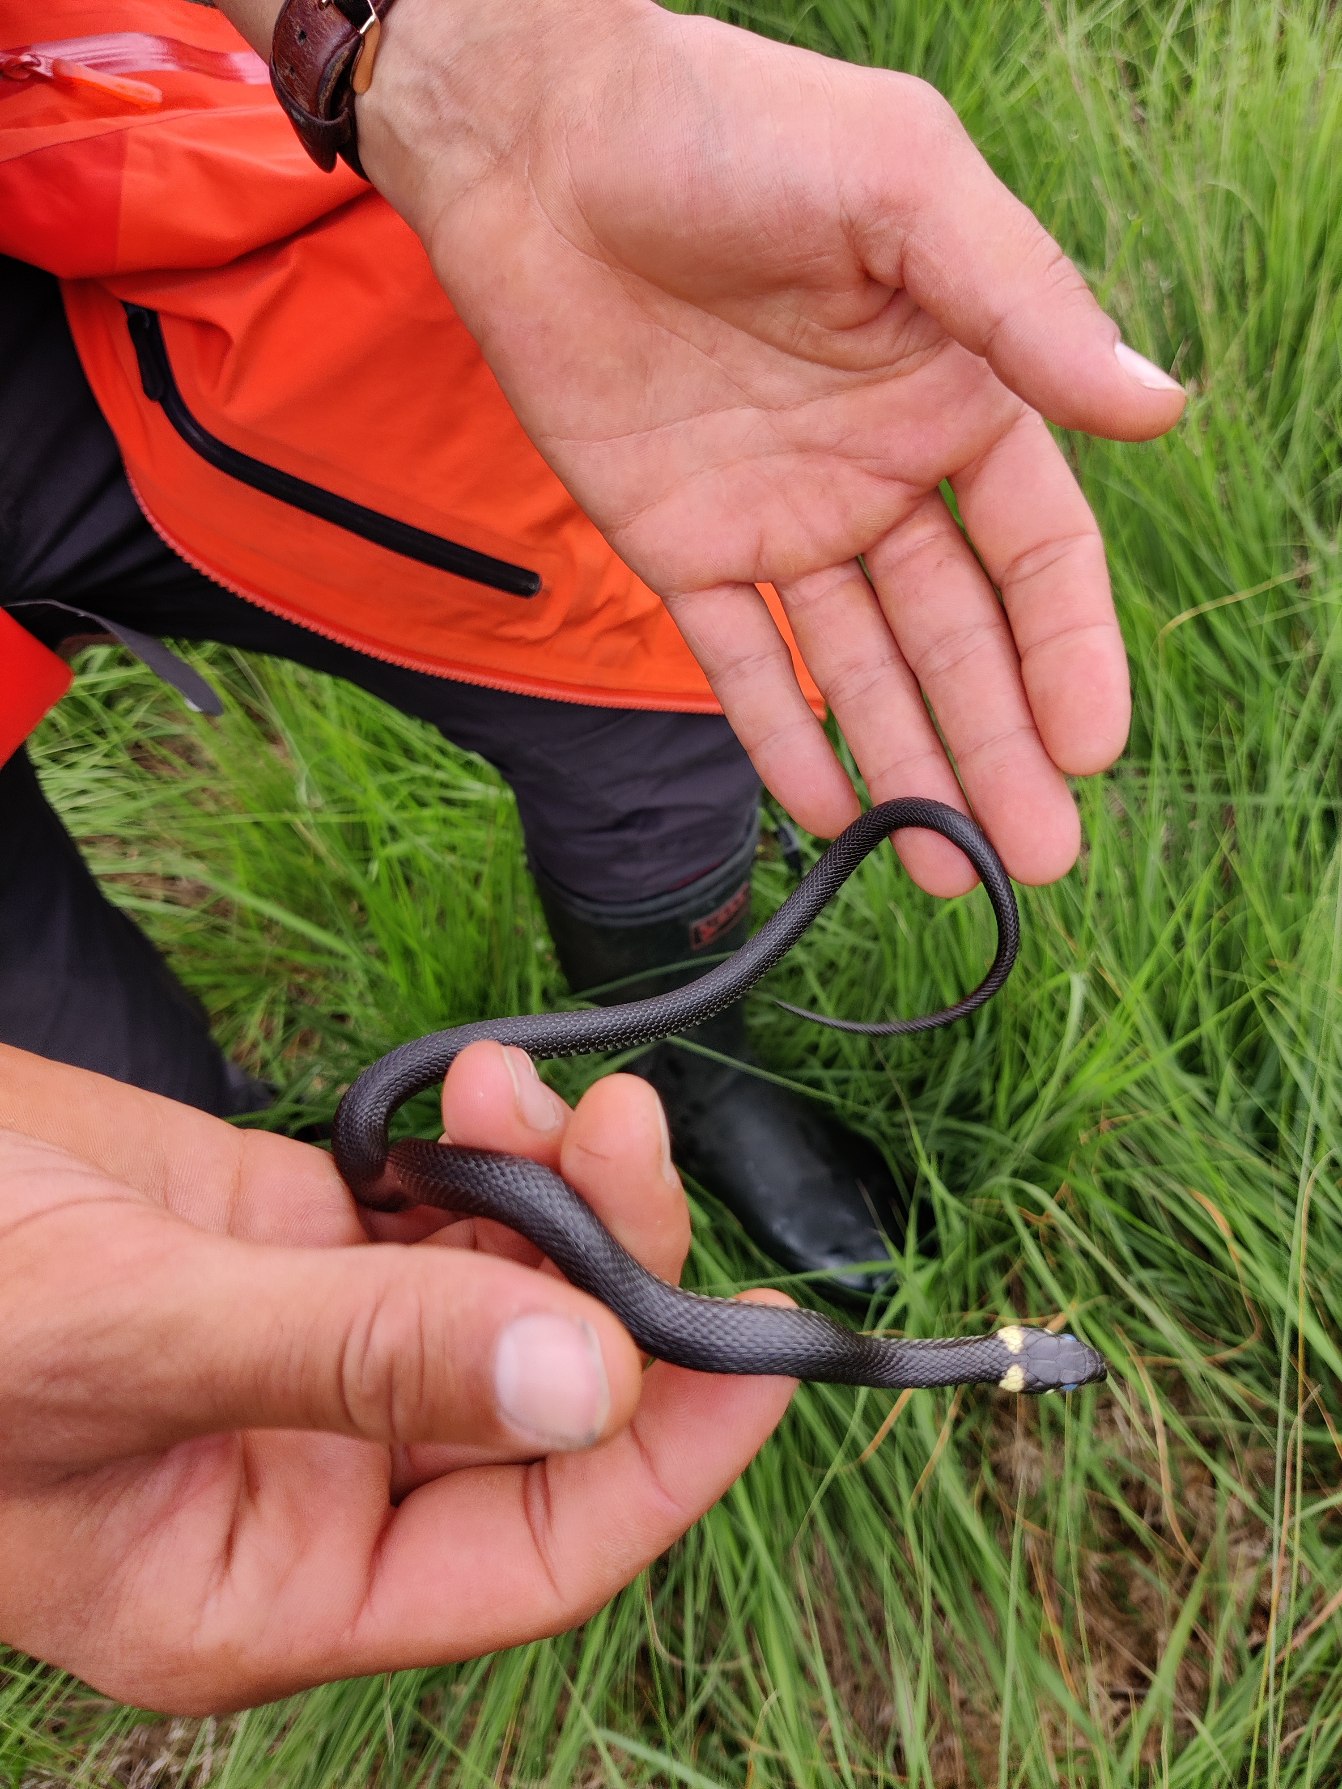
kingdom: Animalia
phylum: Chordata
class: Squamata
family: Colubridae
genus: Natrix
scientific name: Natrix natrix
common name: Snog
